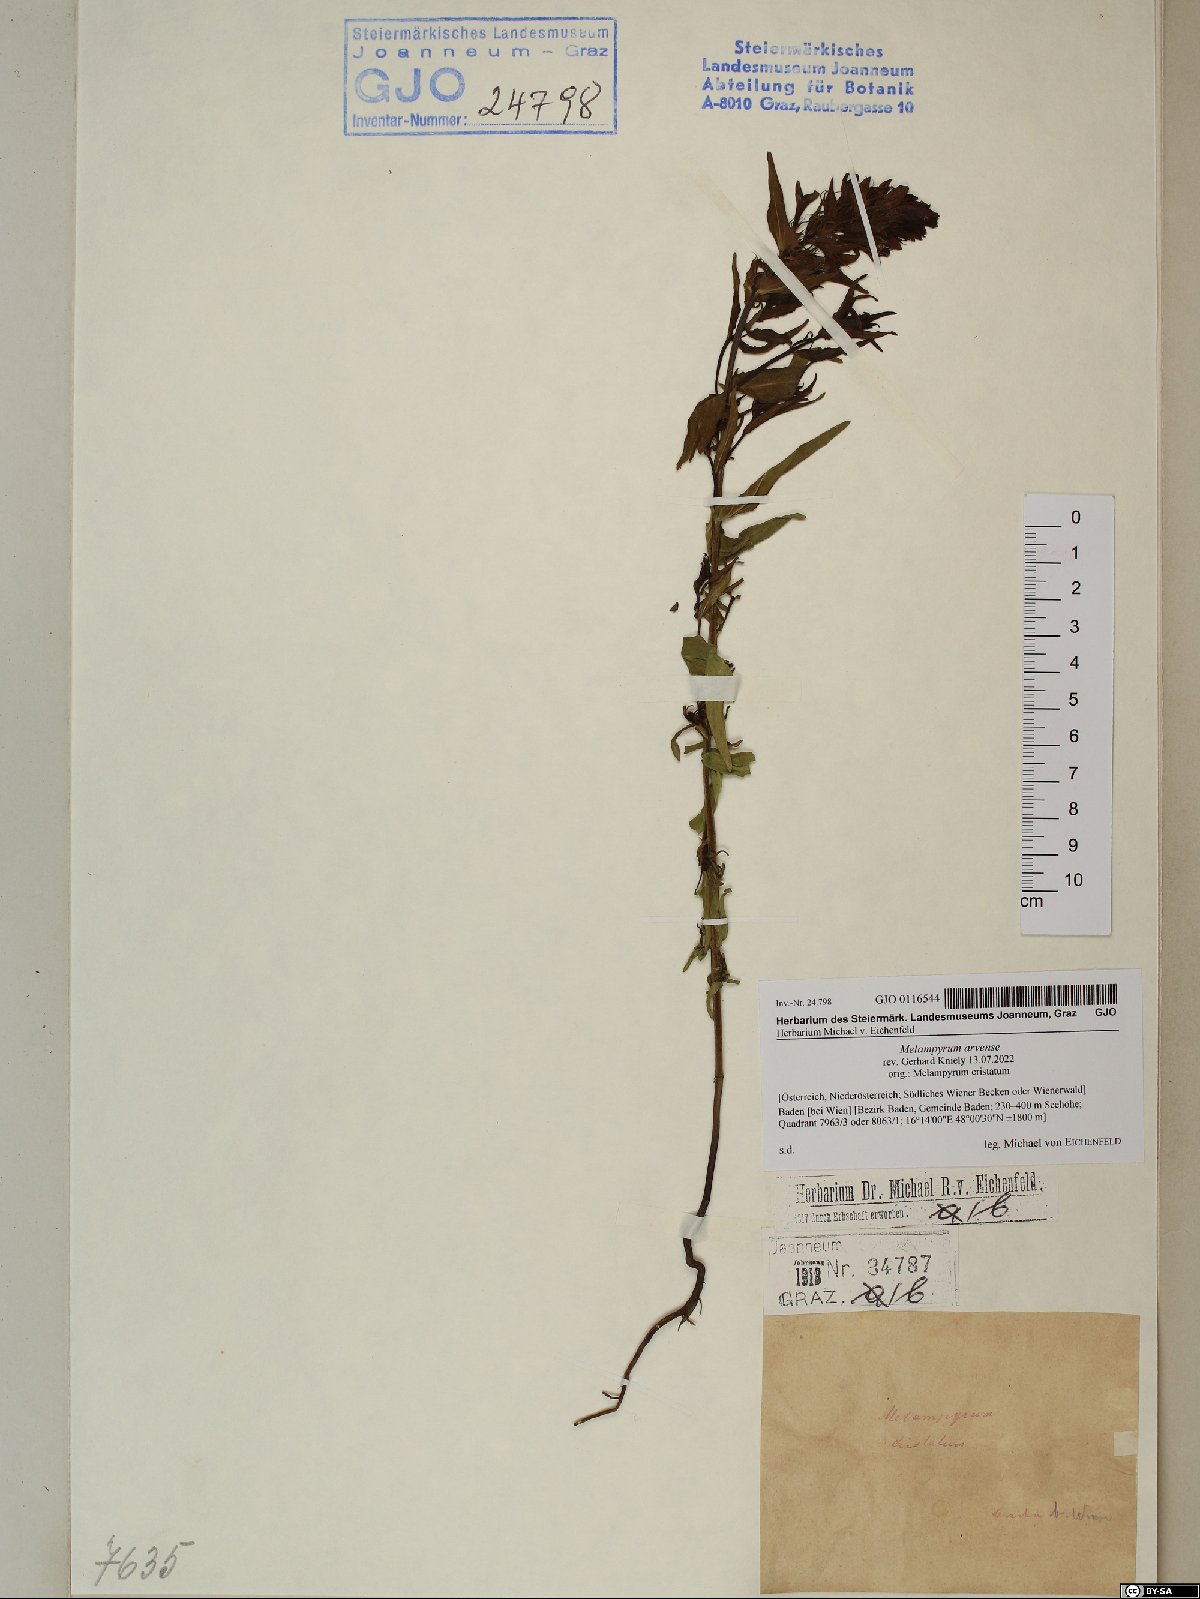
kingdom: Plantae
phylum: Tracheophyta
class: Magnoliopsida
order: Lamiales
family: Orobanchaceae
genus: Melampyrum
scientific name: Melampyrum arvense
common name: Field cow-wheat
